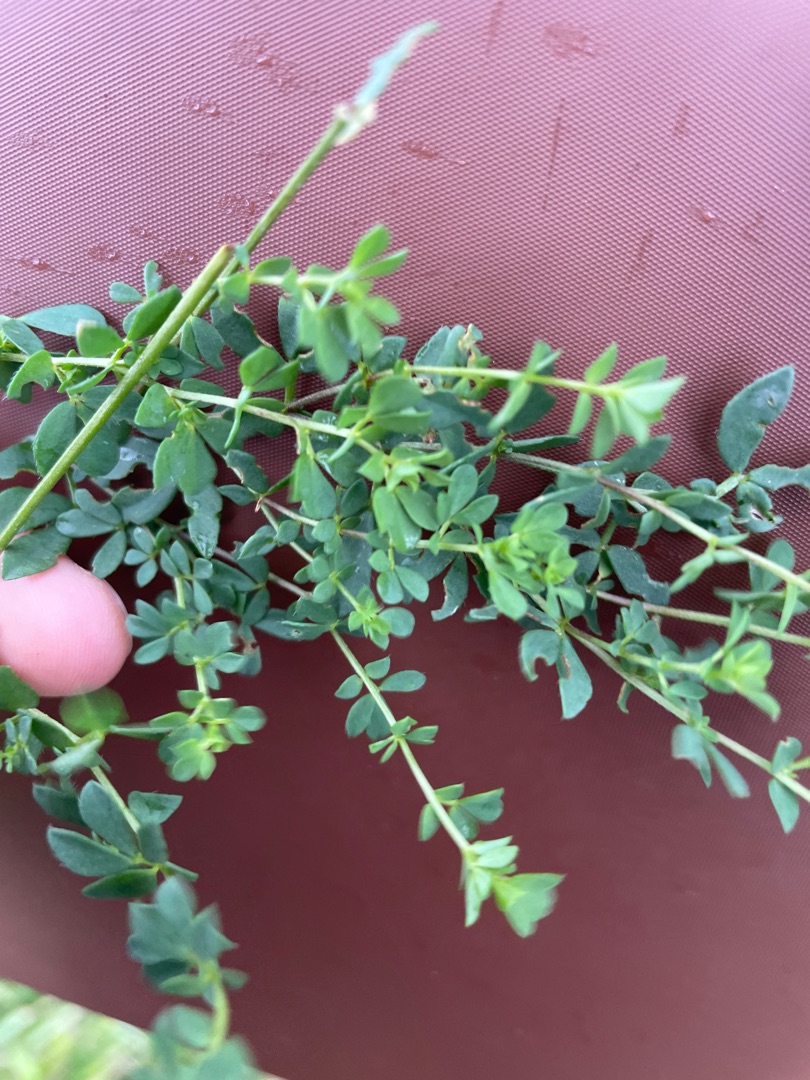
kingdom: Plantae
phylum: Tracheophyta
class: Magnoliopsida
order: Fabales
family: Fabaceae
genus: Lotus
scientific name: Lotus corniculatus
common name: Almindelig kællingetand
